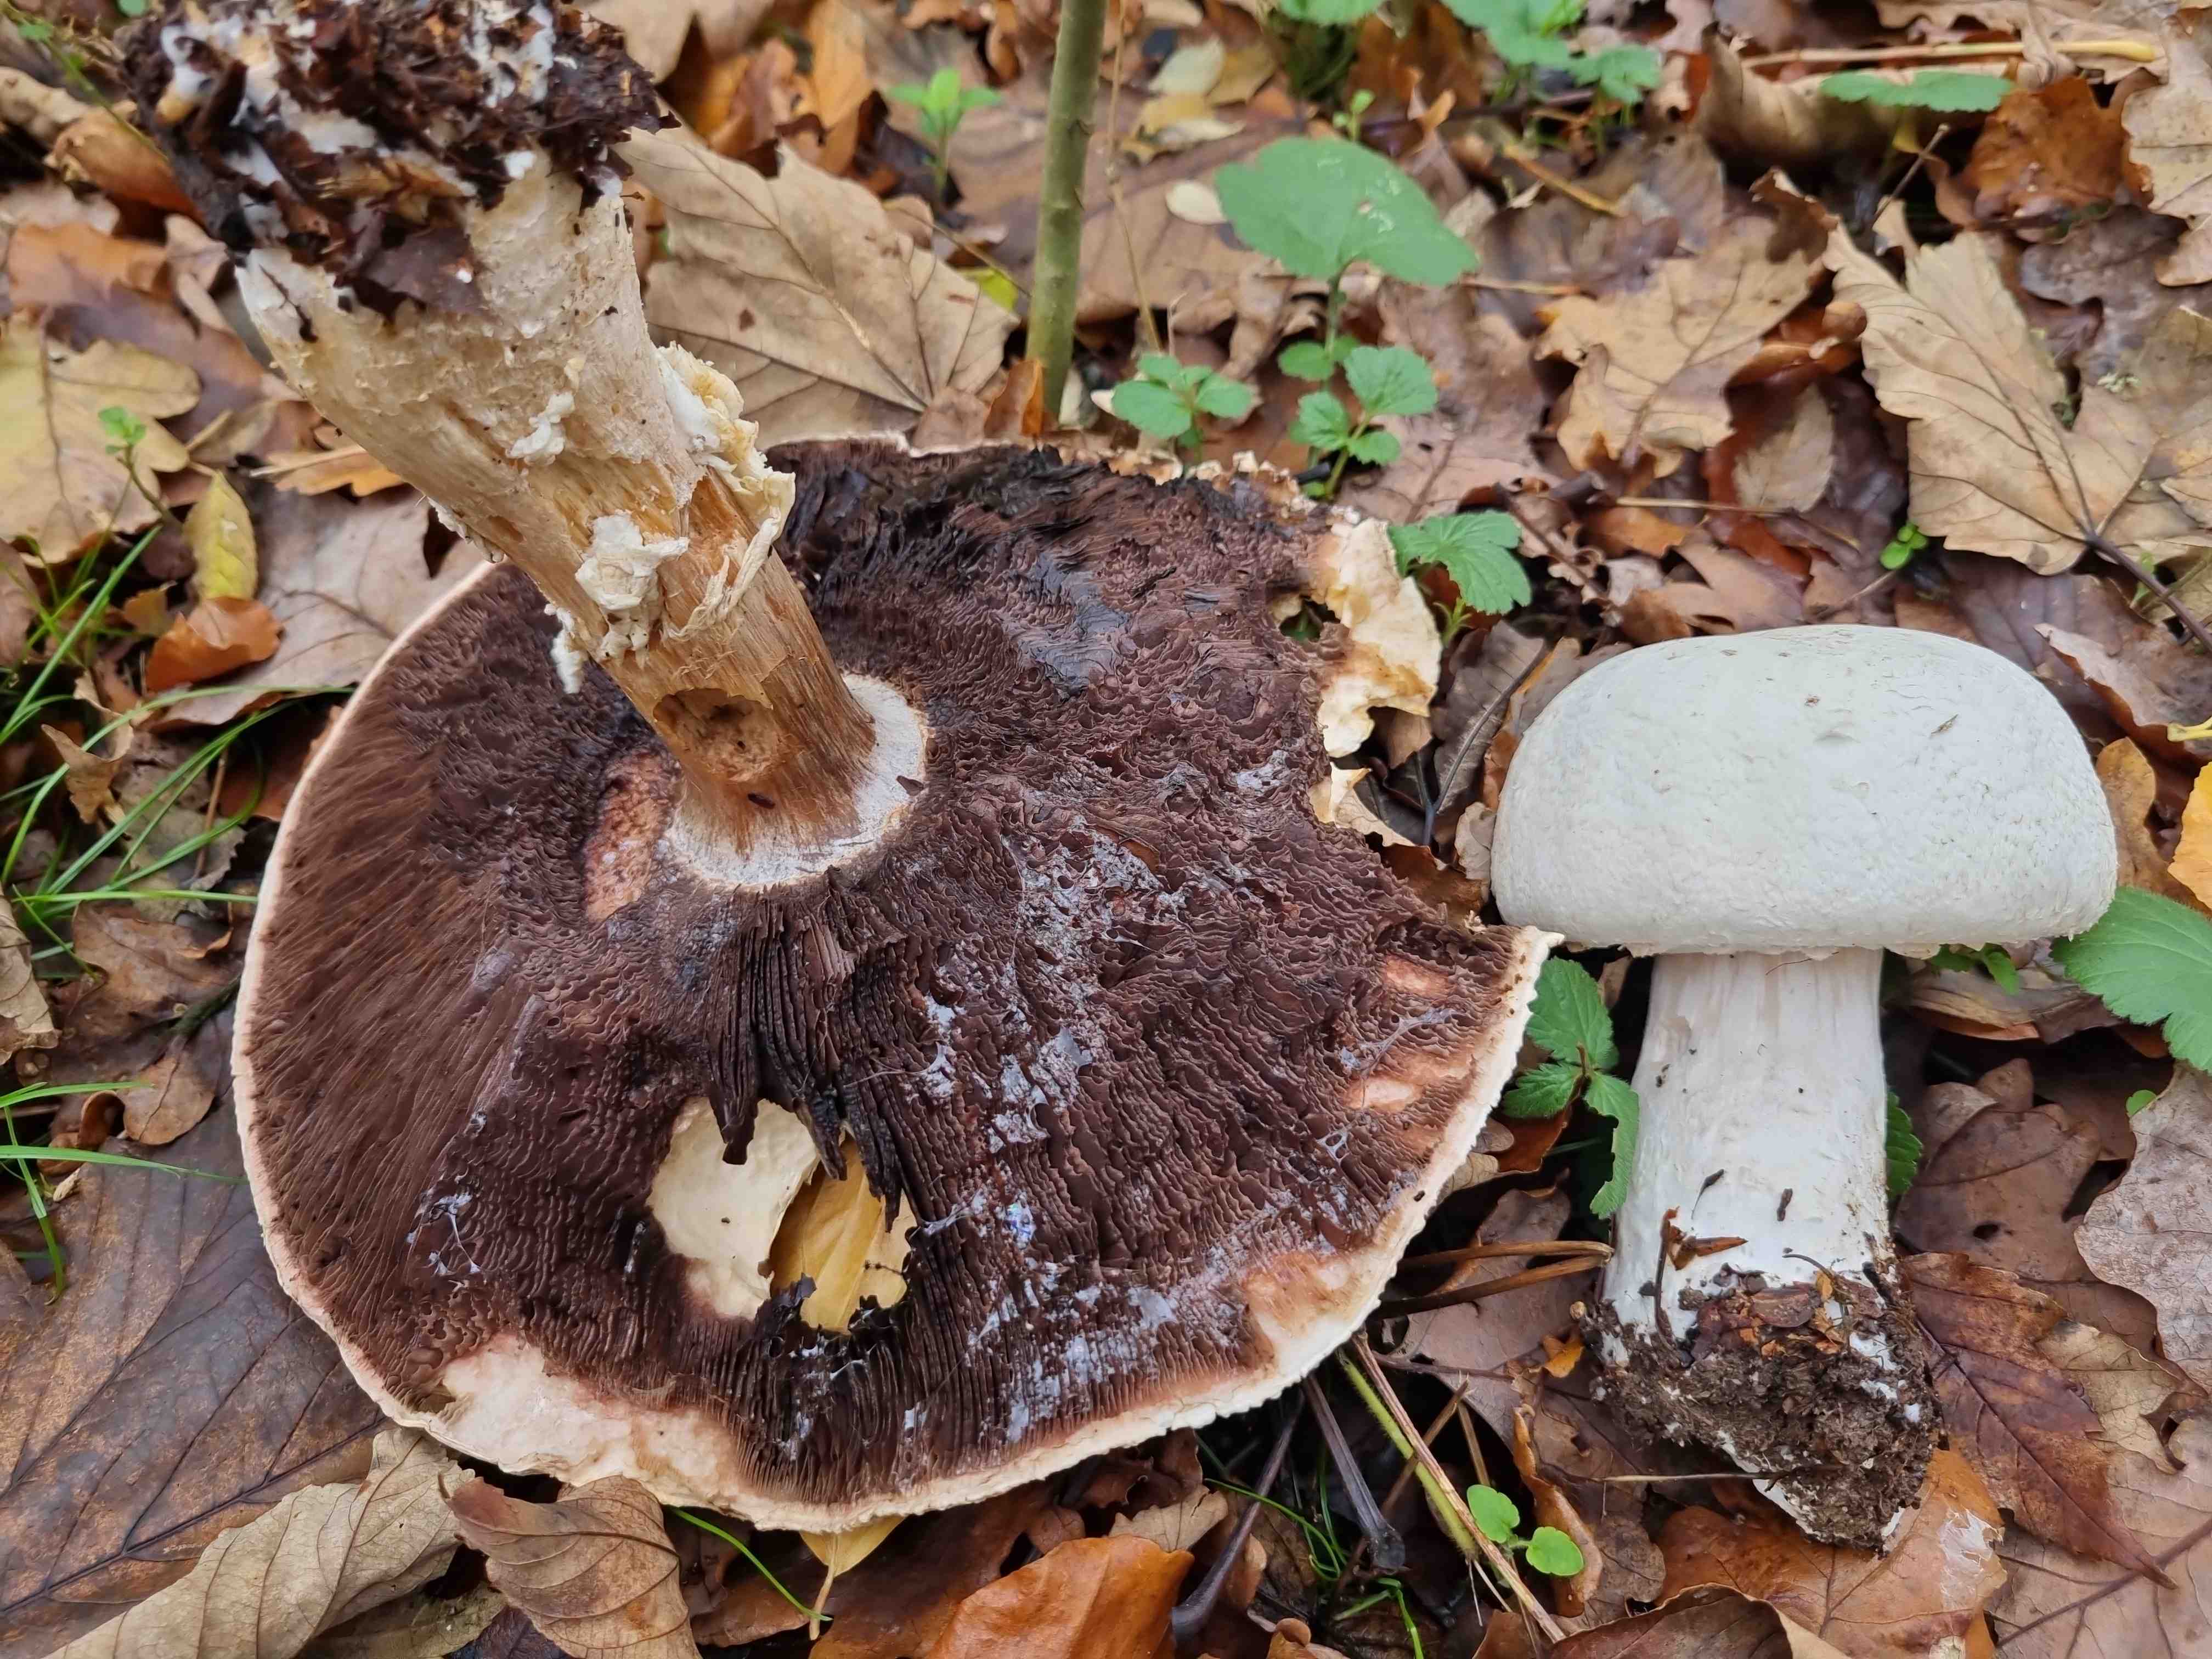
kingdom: Fungi
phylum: Basidiomycota
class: Agaricomycetes
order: Agaricales
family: Agaricaceae
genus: Agaricus
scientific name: Agaricus arvensis
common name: ager-champignon
